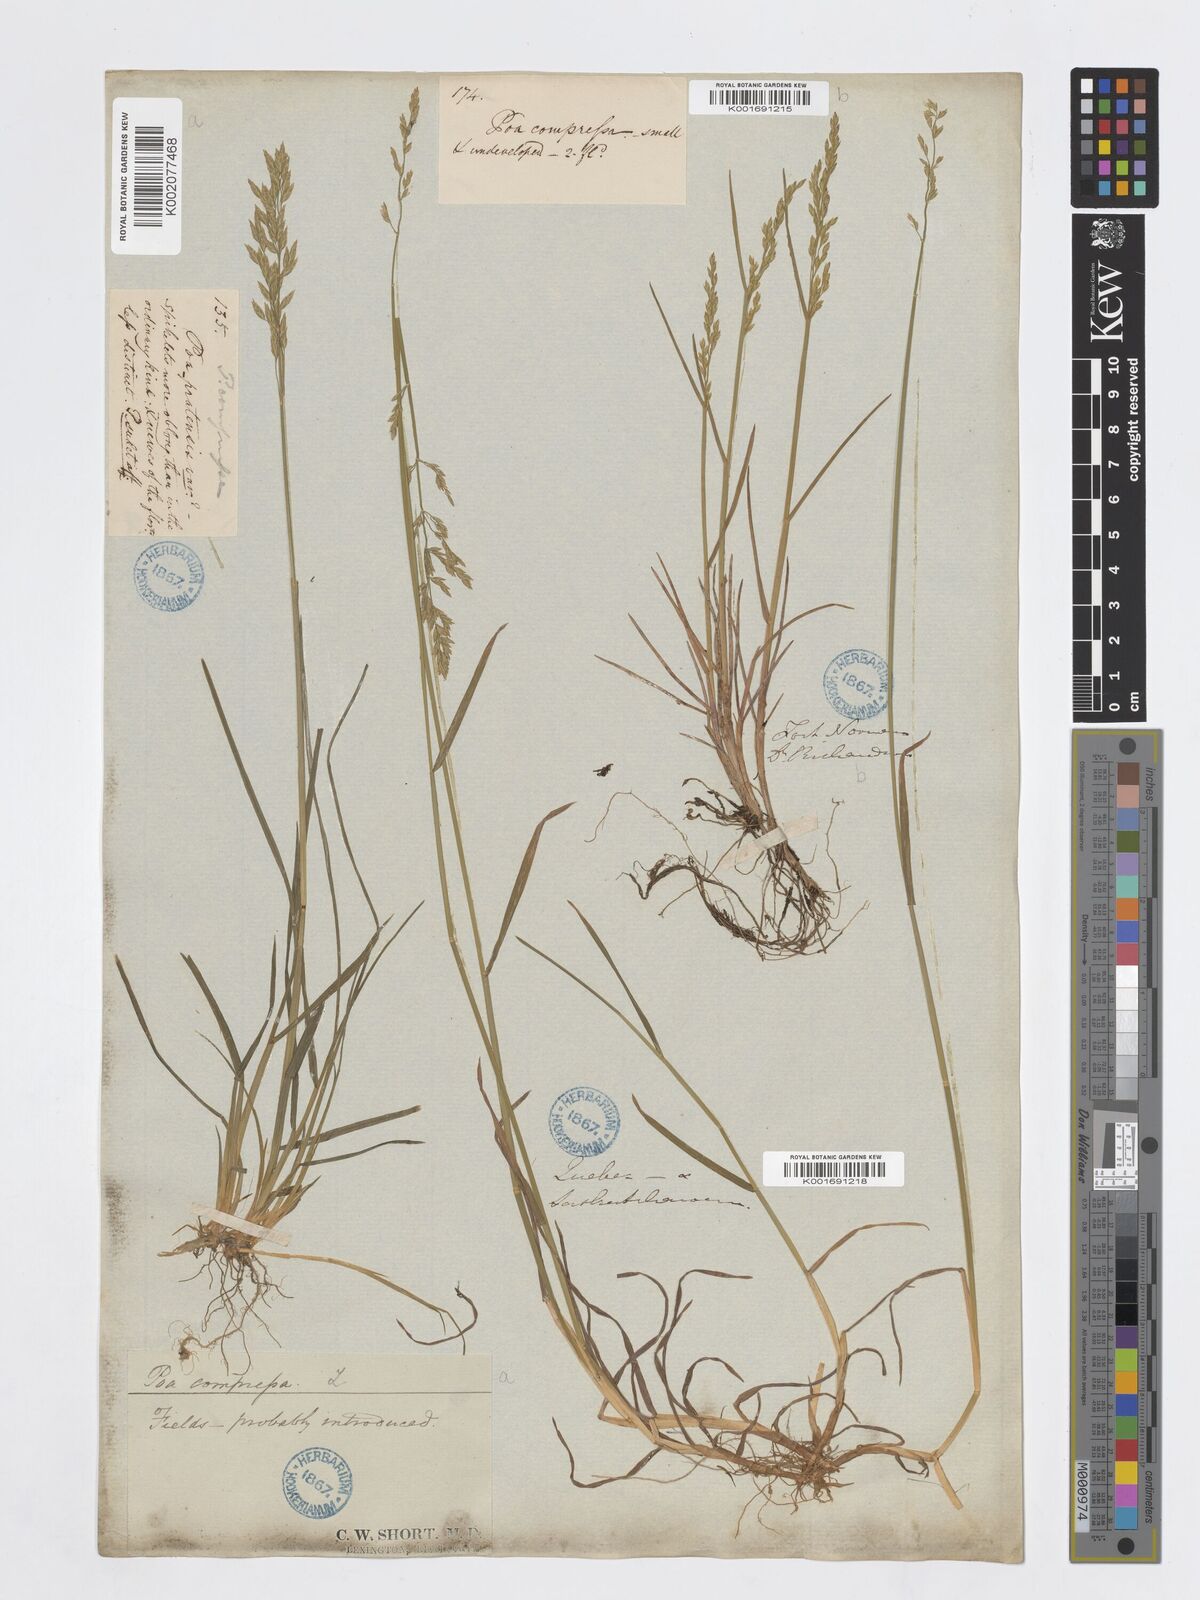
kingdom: Plantae
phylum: Tracheophyta
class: Liliopsida
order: Poales
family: Poaceae
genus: Poa
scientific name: Poa compressa
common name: Canada bluegrass
